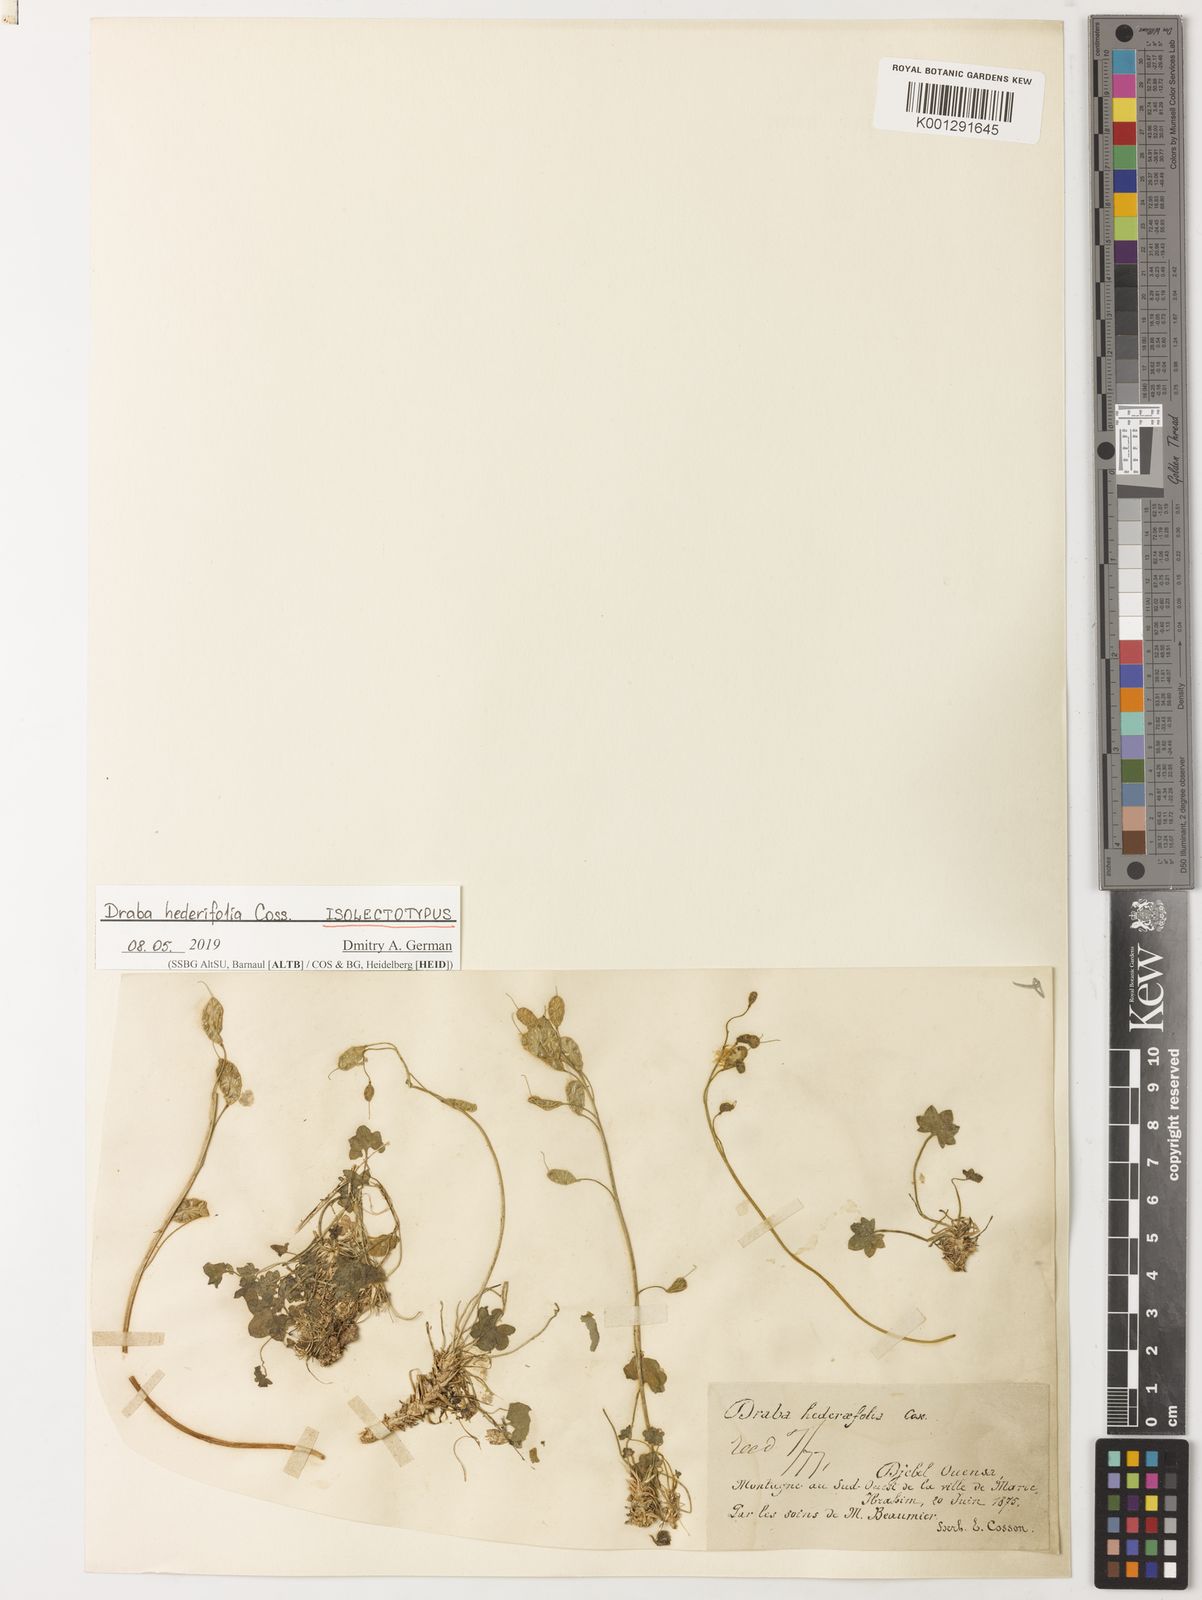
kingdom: Plantae
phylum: Tracheophyta
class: Magnoliopsida
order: Brassicales
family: Brassicaceae
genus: Draba
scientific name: Draba hederifolia
